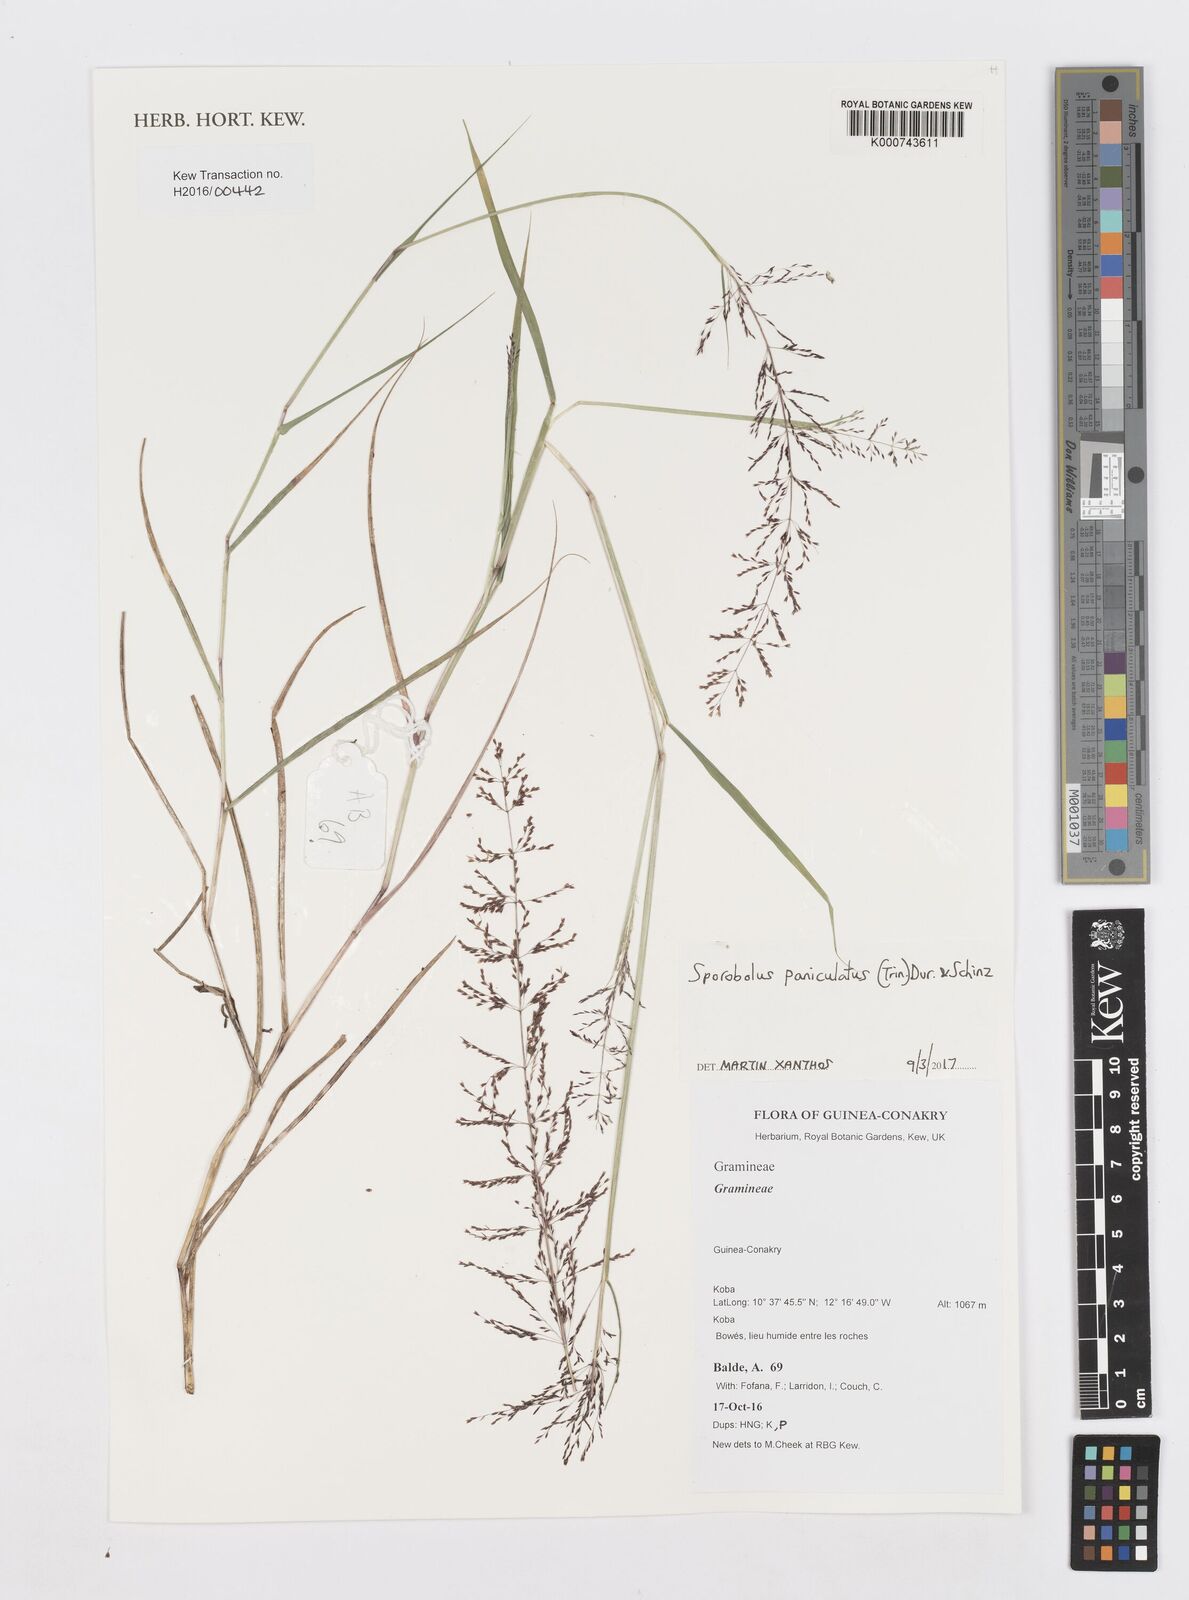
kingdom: Plantae
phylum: Tracheophyta
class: Liliopsida
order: Poales
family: Poaceae
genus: Sporobolus
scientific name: Sporobolus paniculatus
